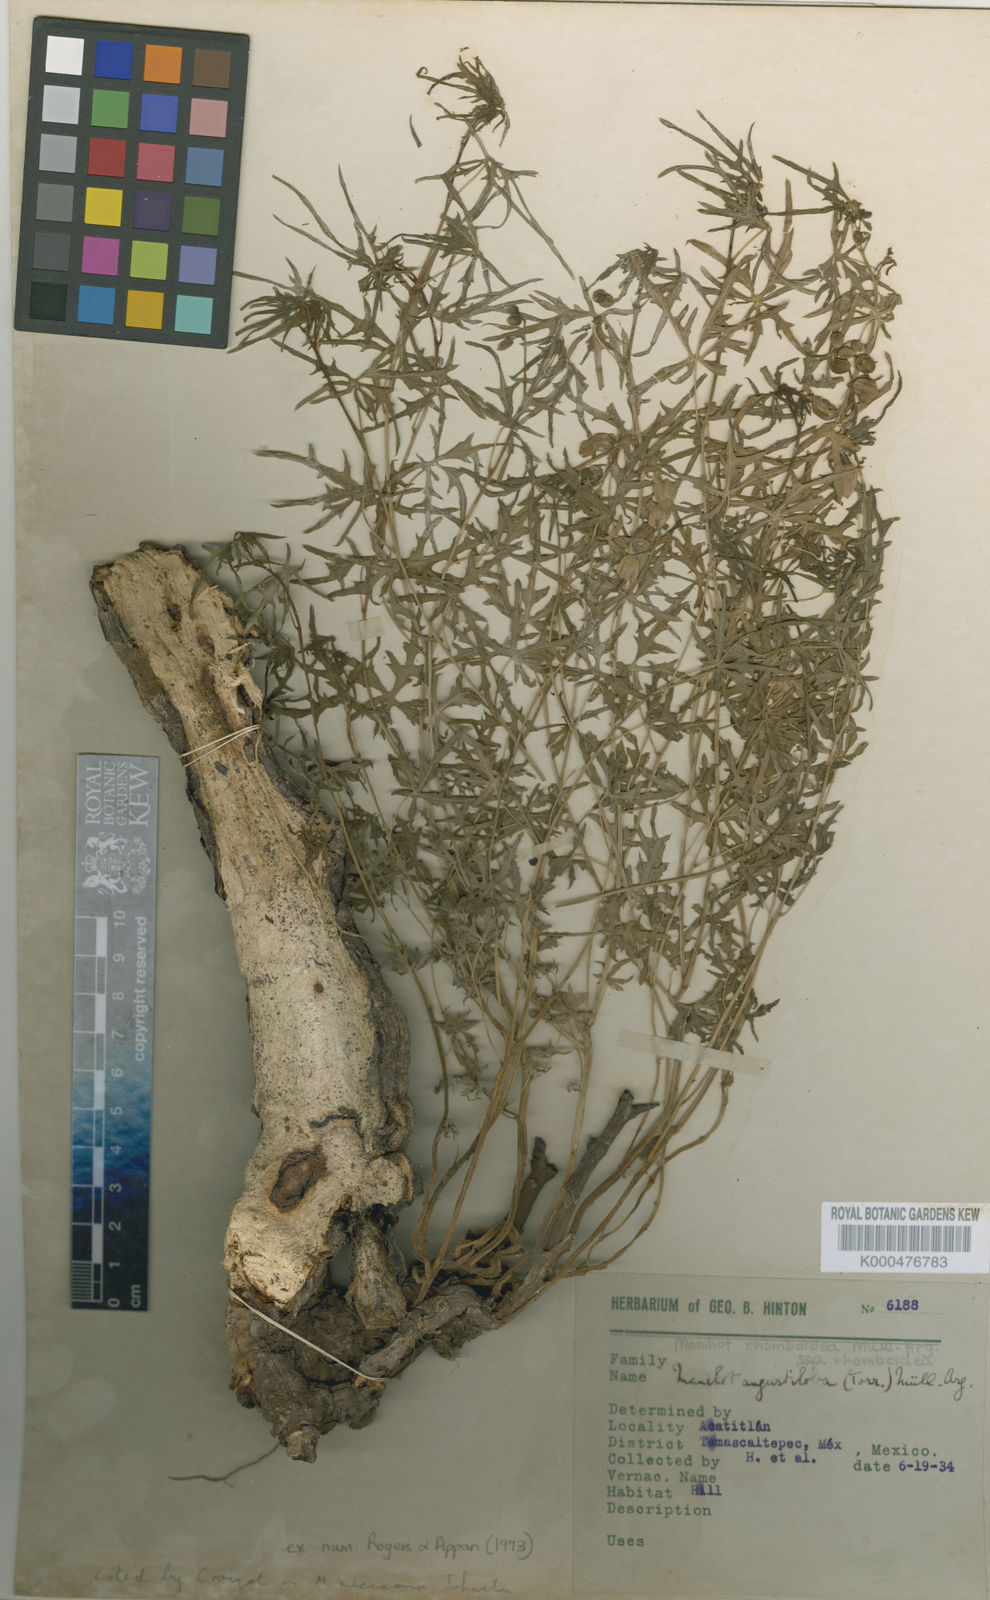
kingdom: Plantae
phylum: Tracheophyta
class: Magnoliopsida
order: Malpighiales
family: Euphorbiaceae
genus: Manihot
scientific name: Manihot rhomboidea
